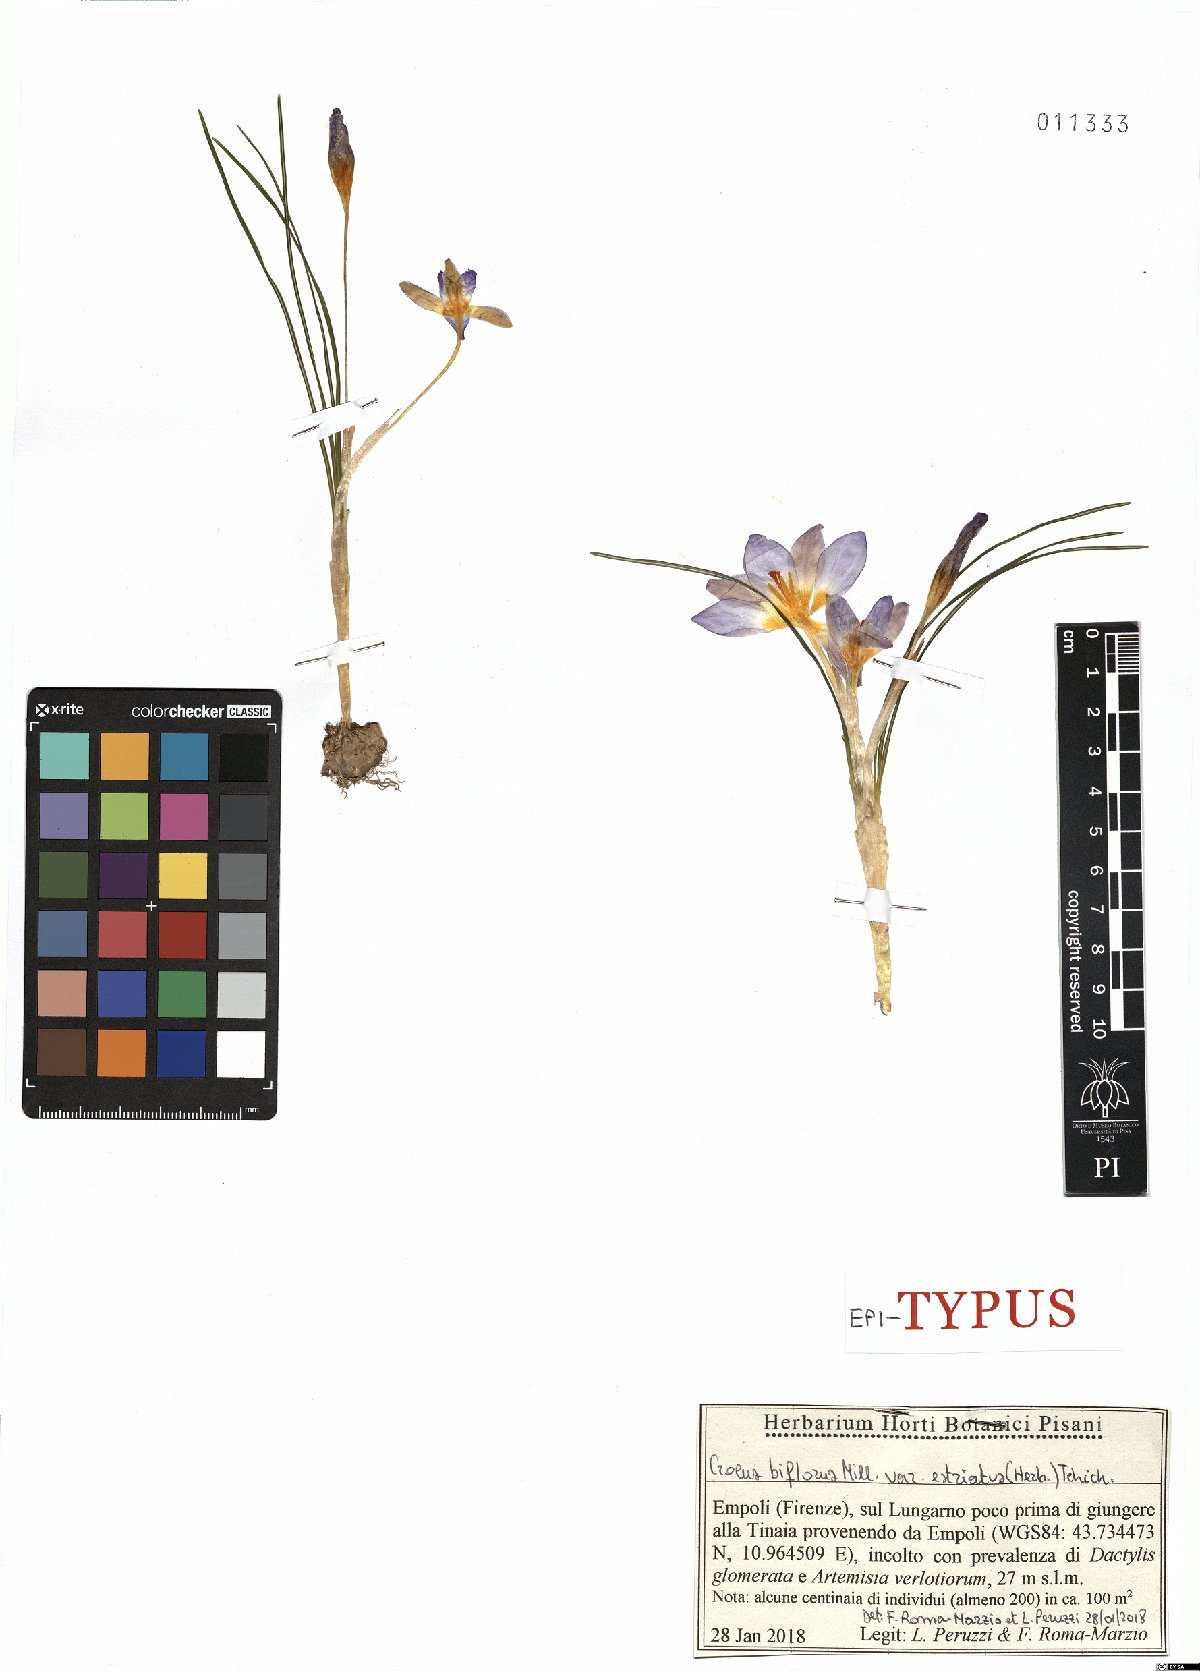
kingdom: Plantae
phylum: Tracheophyta
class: Liliopsida
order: Asparagales
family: Iridaceae
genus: Crocus
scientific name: Crocus biflorus
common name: Silvery crocus
